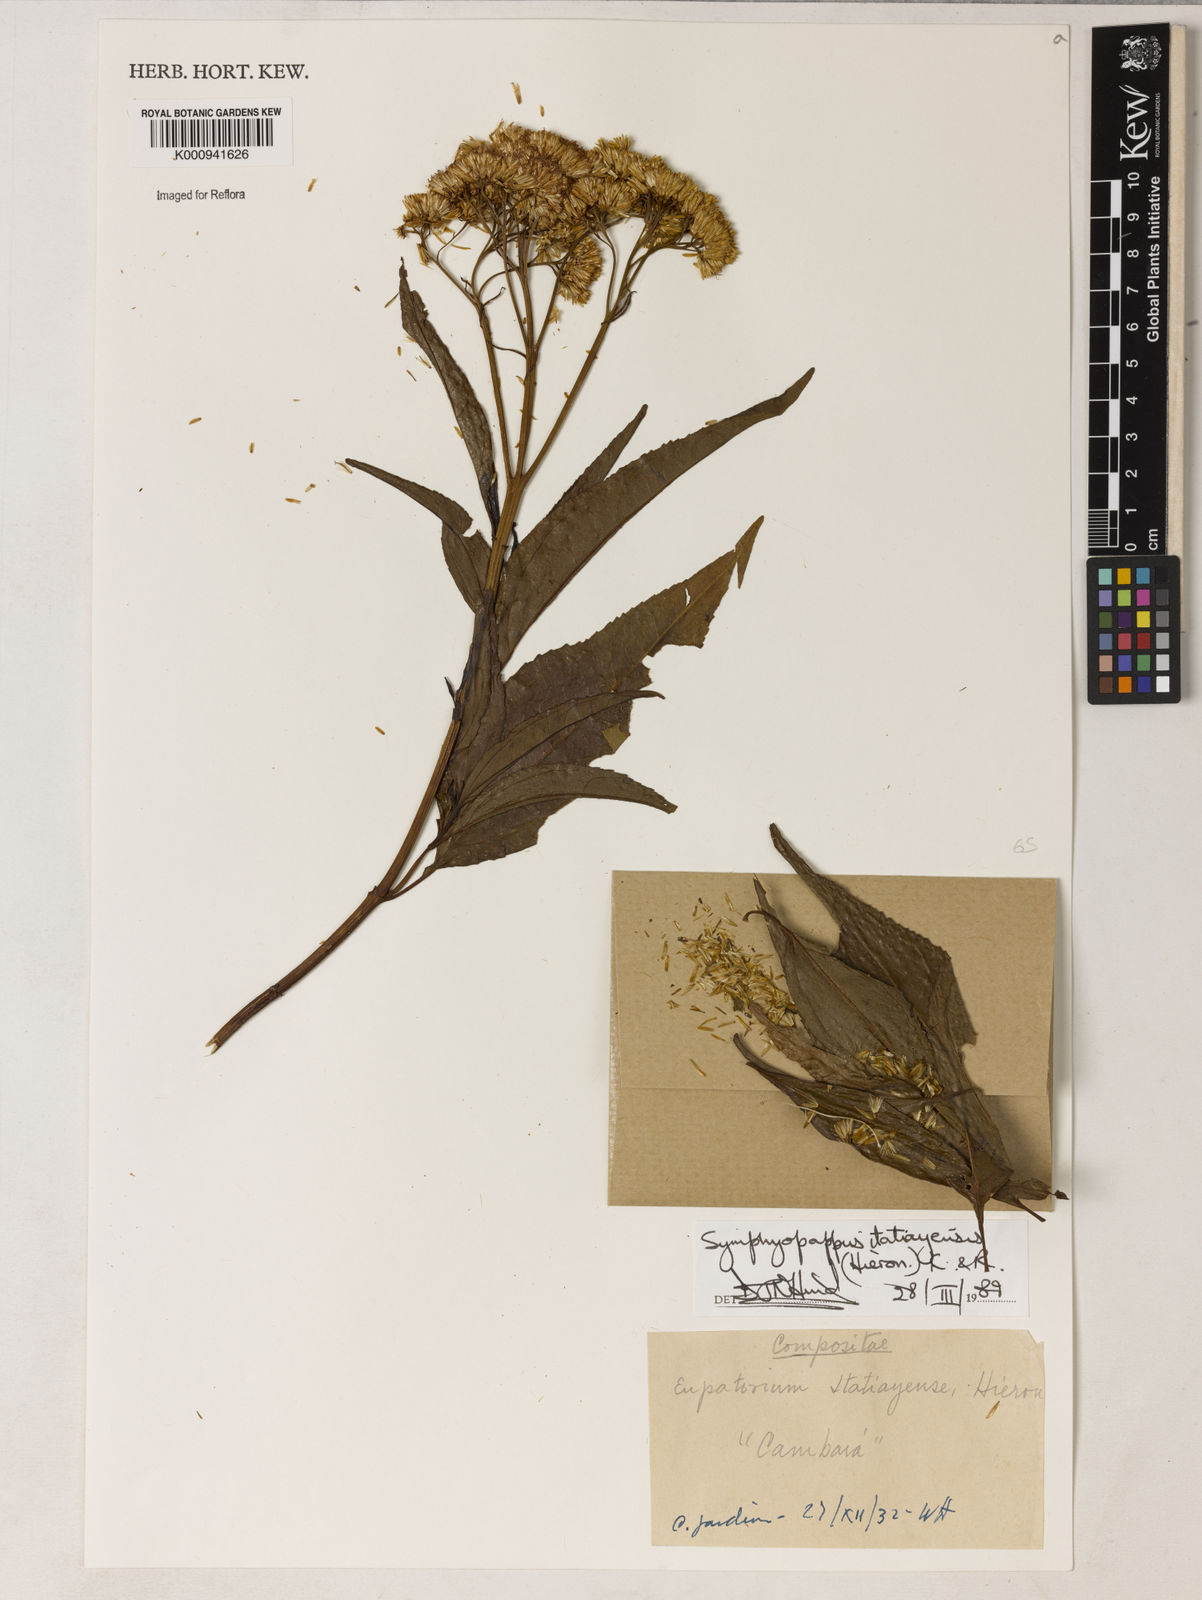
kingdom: Plantae
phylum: Tracheophyta
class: Magnoliopsida
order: Asterales
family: Asteraceae
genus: Symphyopappus
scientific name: Symphyopappus itatiayensis
